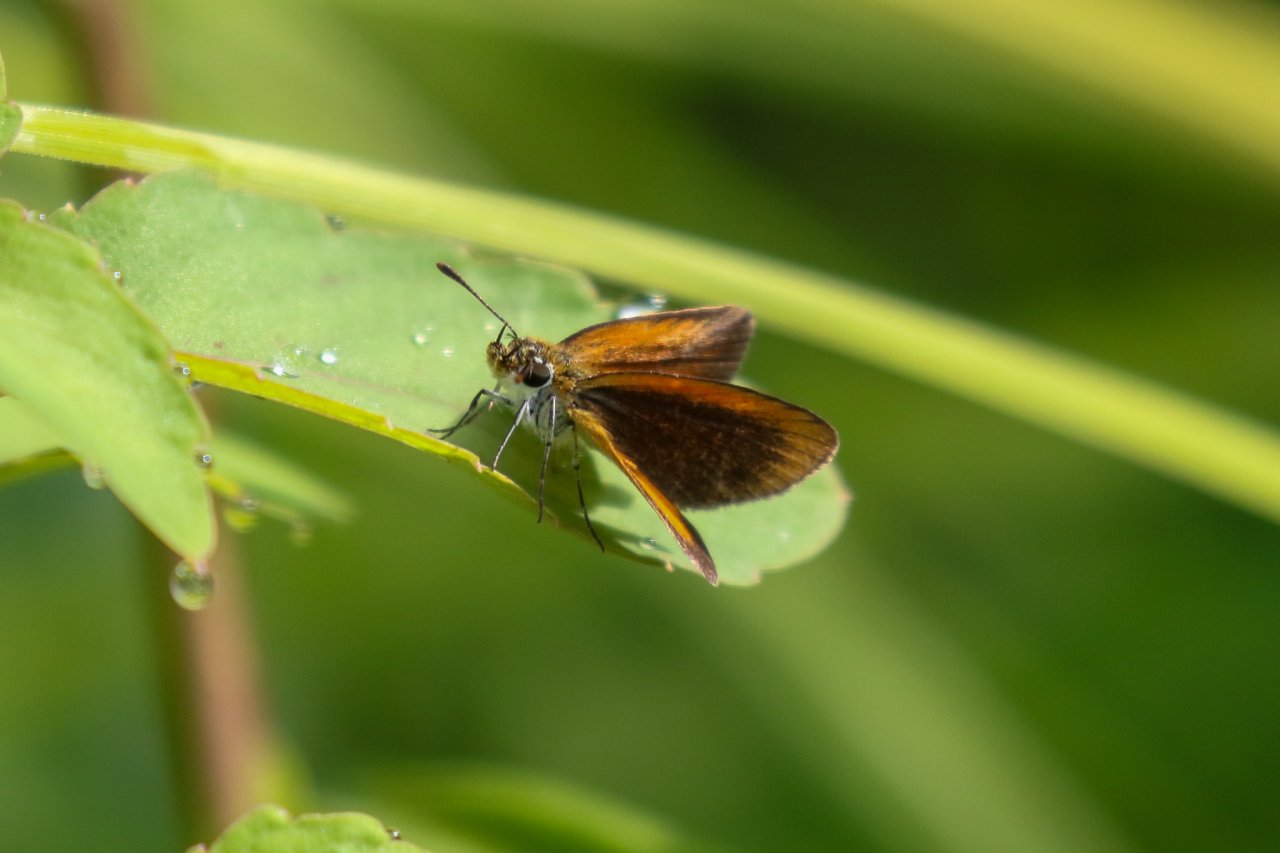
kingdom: Animalia
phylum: Arthropoda
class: Insecta
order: Lepidoptera
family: Hesperiidae
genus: Ancyloxypha
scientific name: Ancyloxypha numitor
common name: Least Skipper
